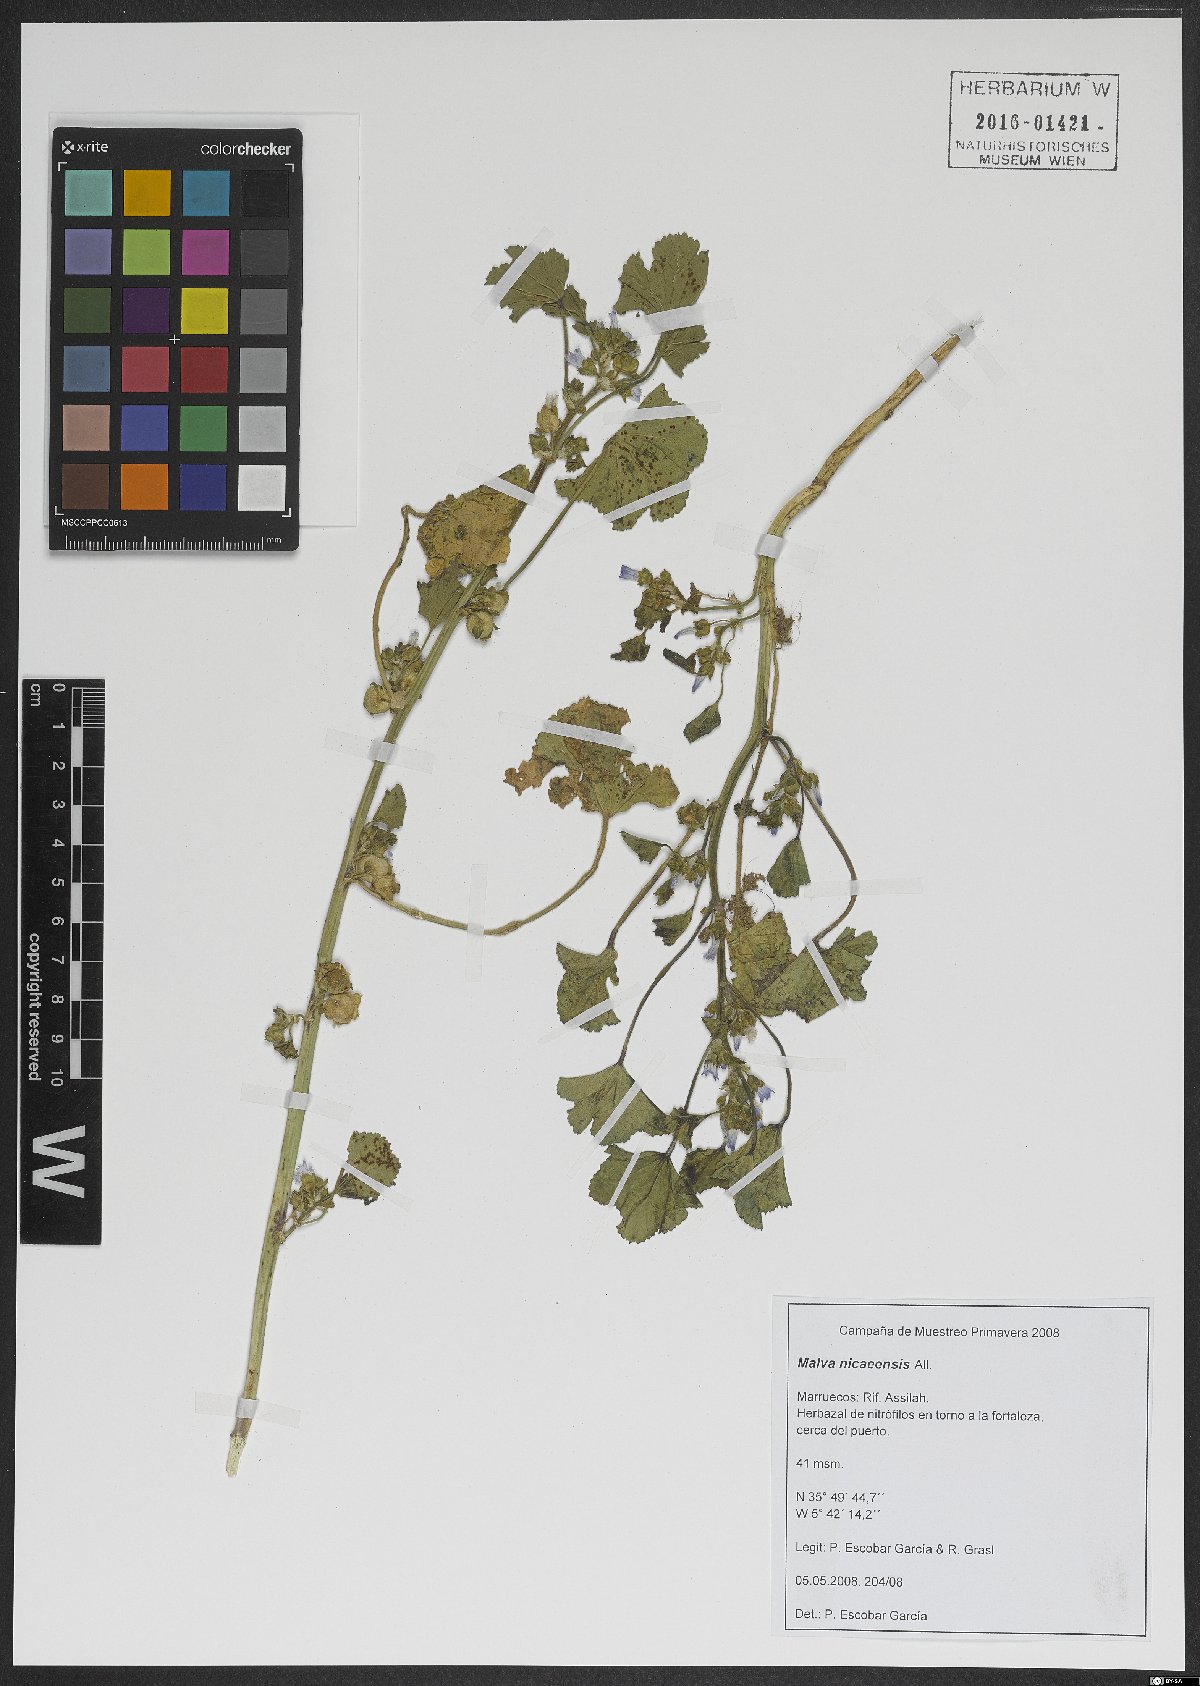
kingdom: Plantae
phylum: Tracheophyta
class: Magnoliopsida
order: Malvales
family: Malvaceae
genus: Malva
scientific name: Malva nicaeensis
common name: French mallow
